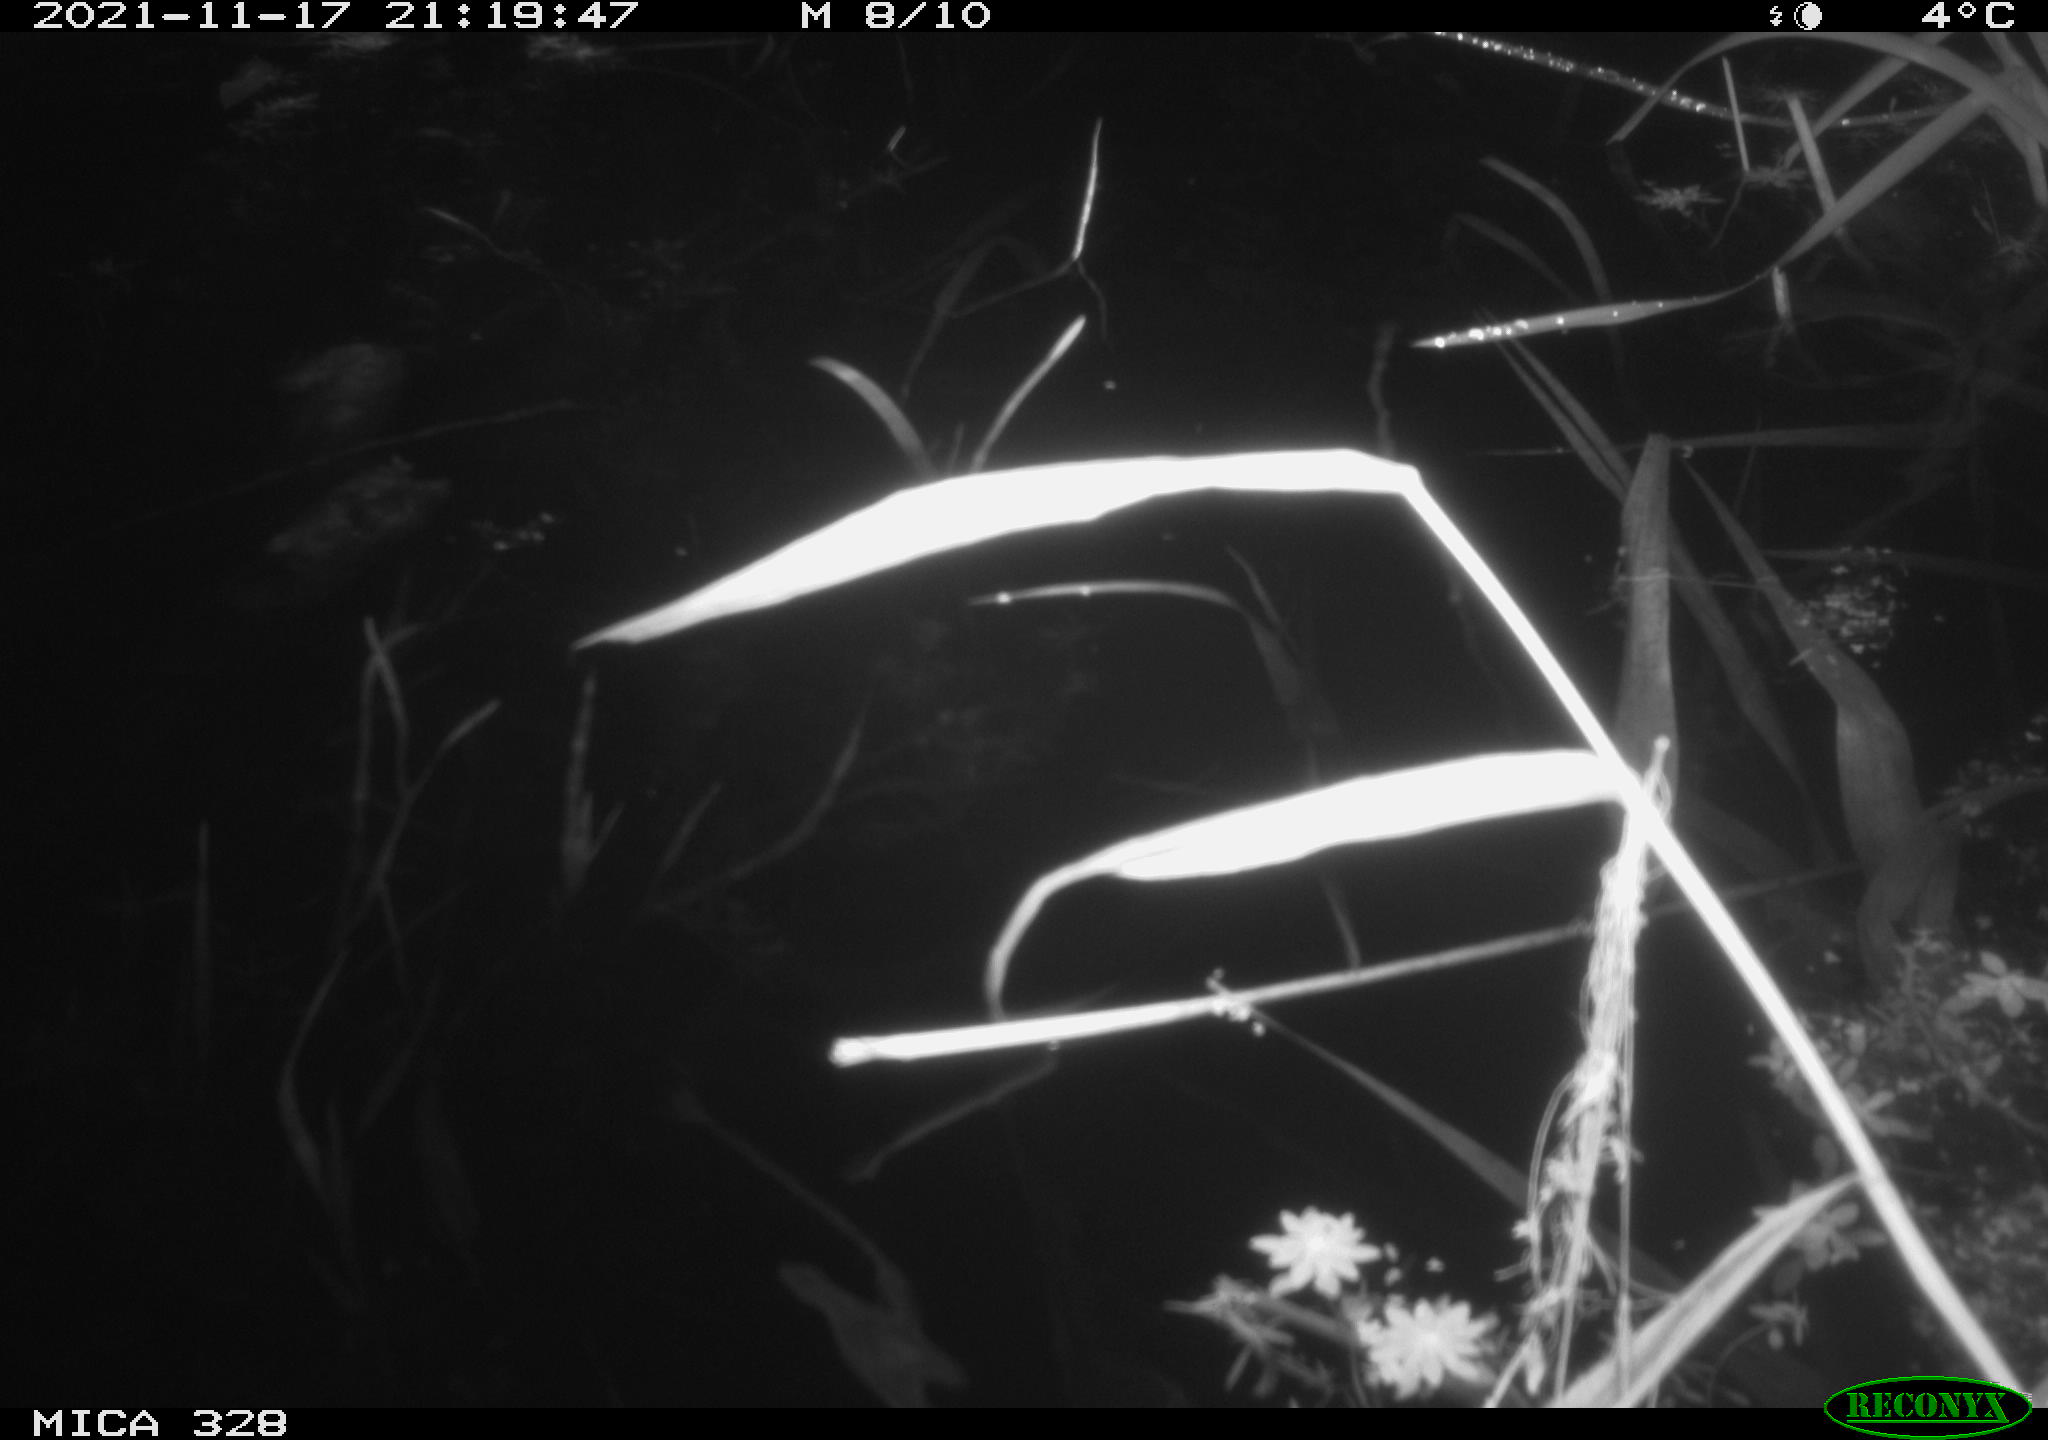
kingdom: Animalia
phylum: Chordata
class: Mammalia
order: Rodentia
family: Cricetidae
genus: Ondatra
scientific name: Ondatra zibethicus
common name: Muskrat
